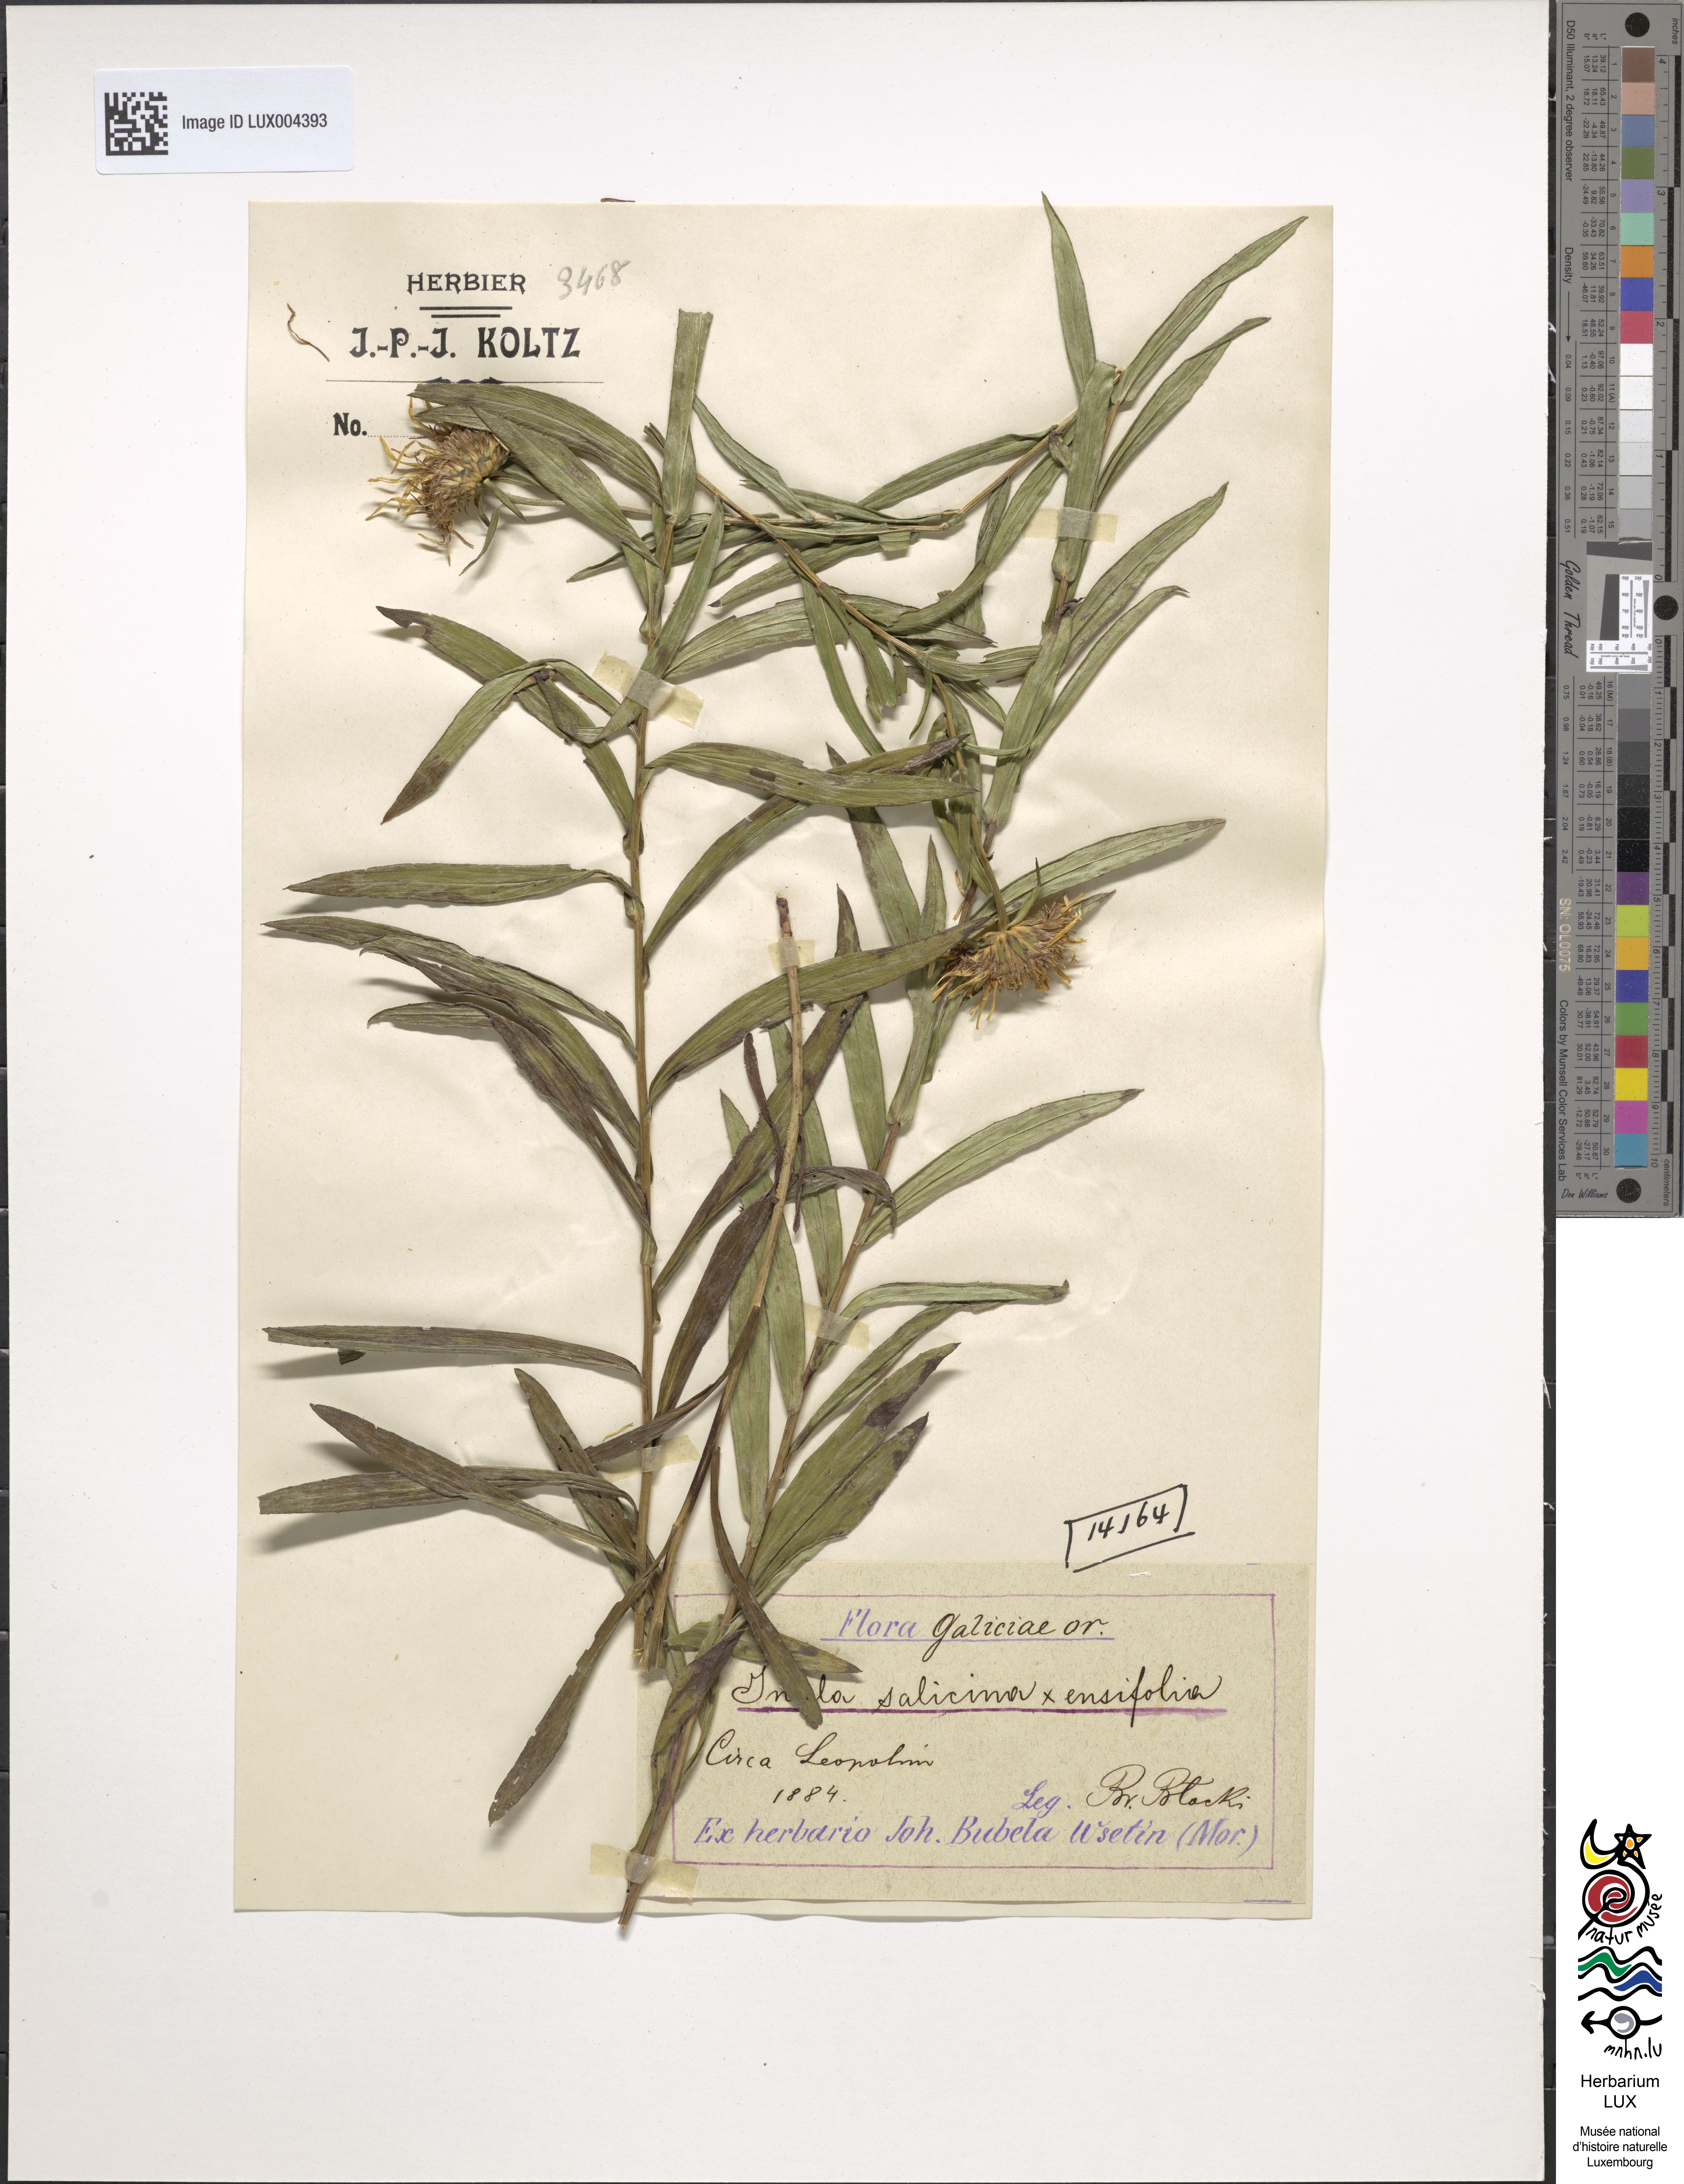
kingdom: Plantae
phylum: Tracheophyta
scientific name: Tracheophyta
